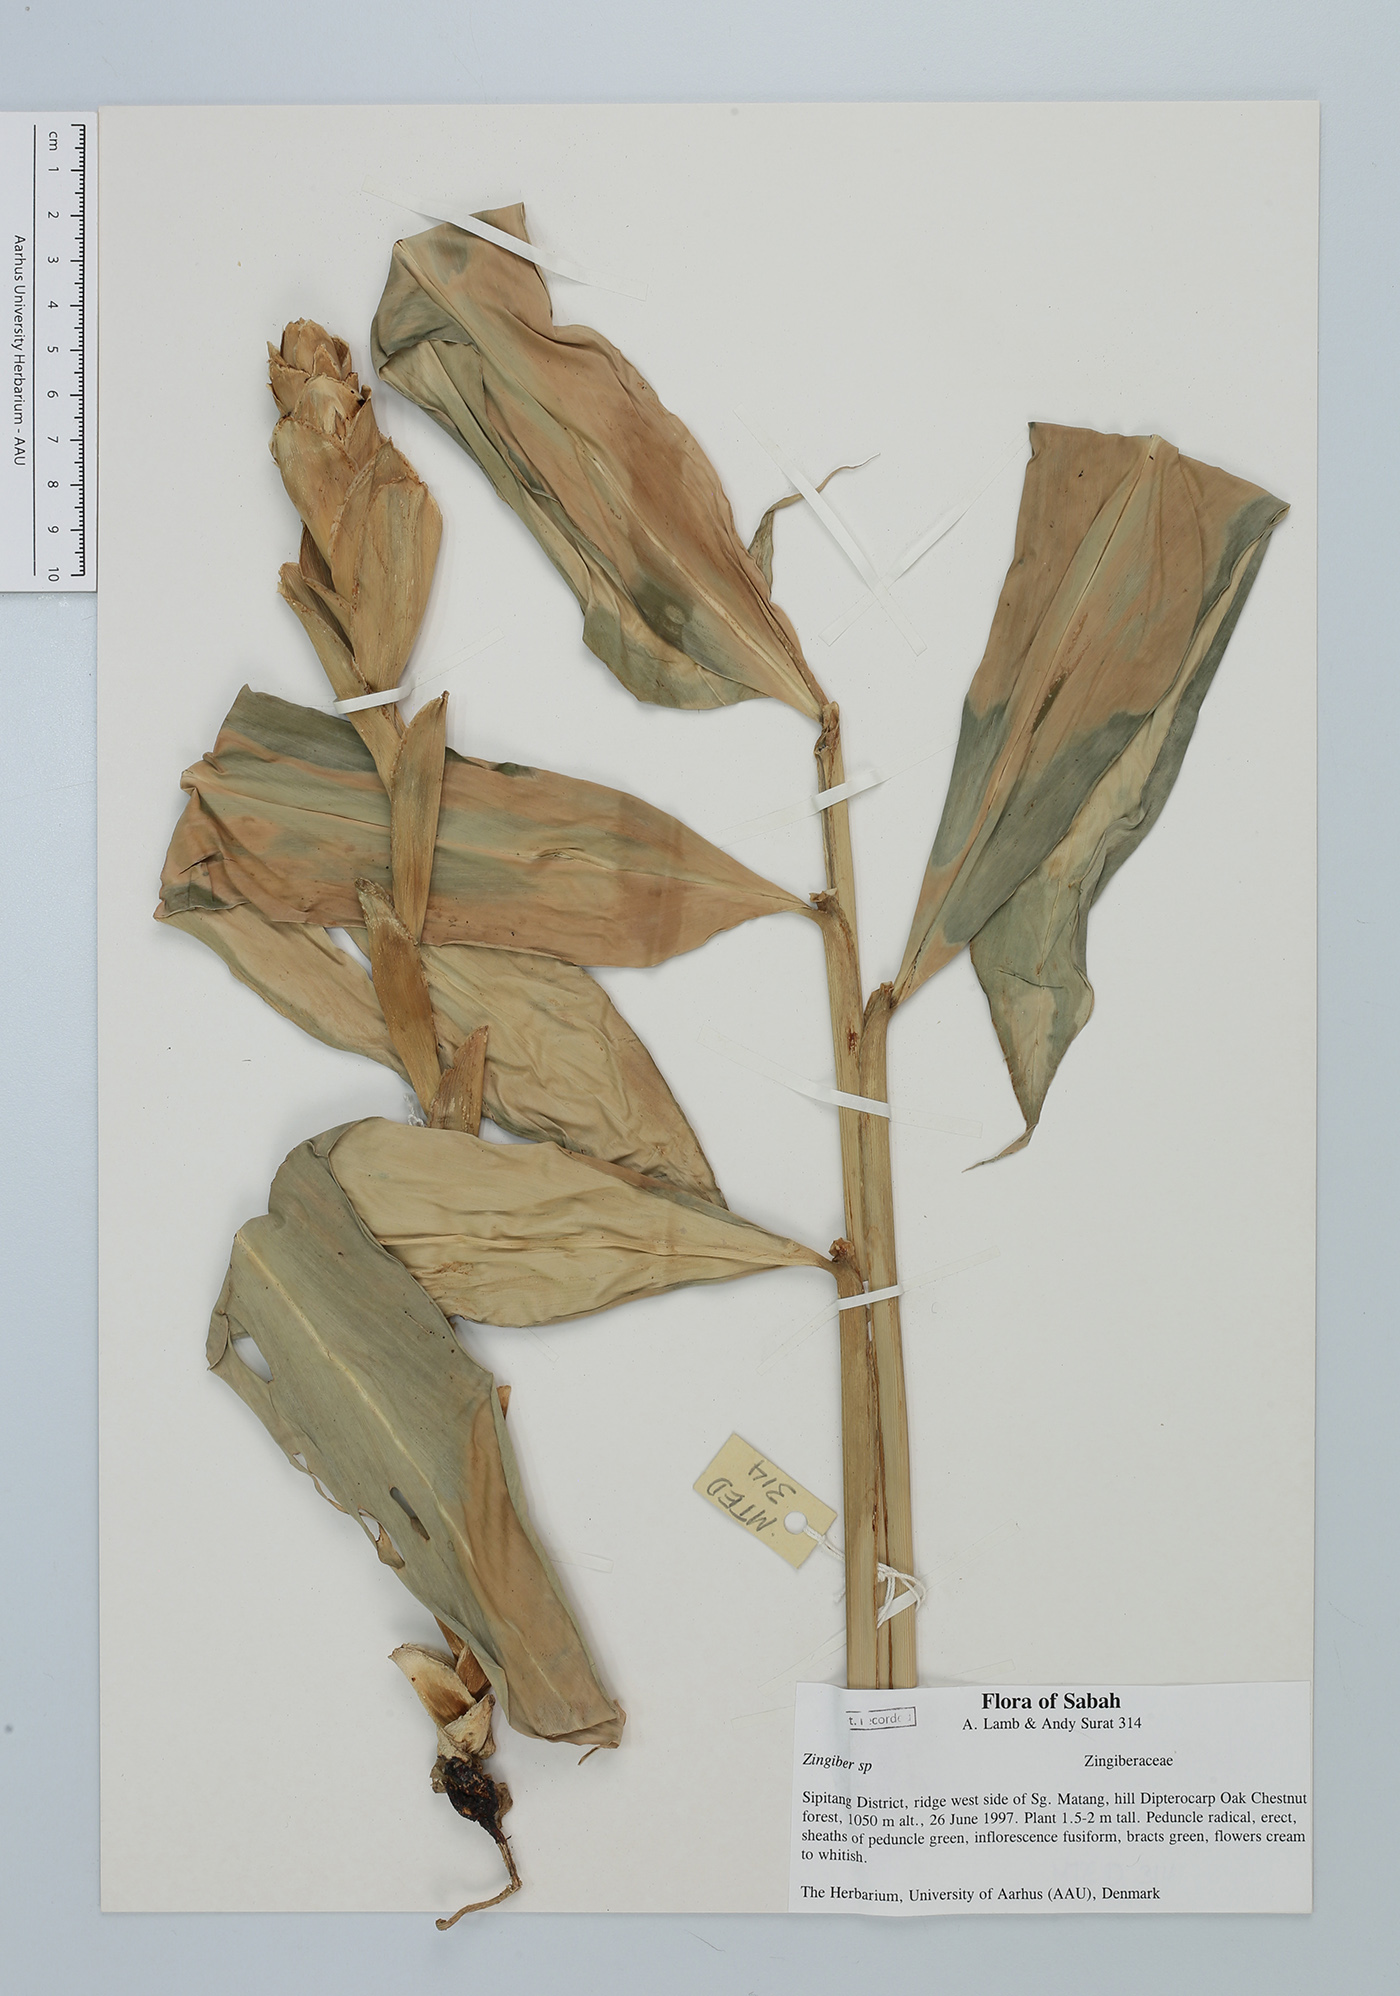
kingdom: Plantae
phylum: Tracheophyta
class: Liliopsida
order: Zingiberales
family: Zingiberaceae
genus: Zingiber
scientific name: Zingiber
